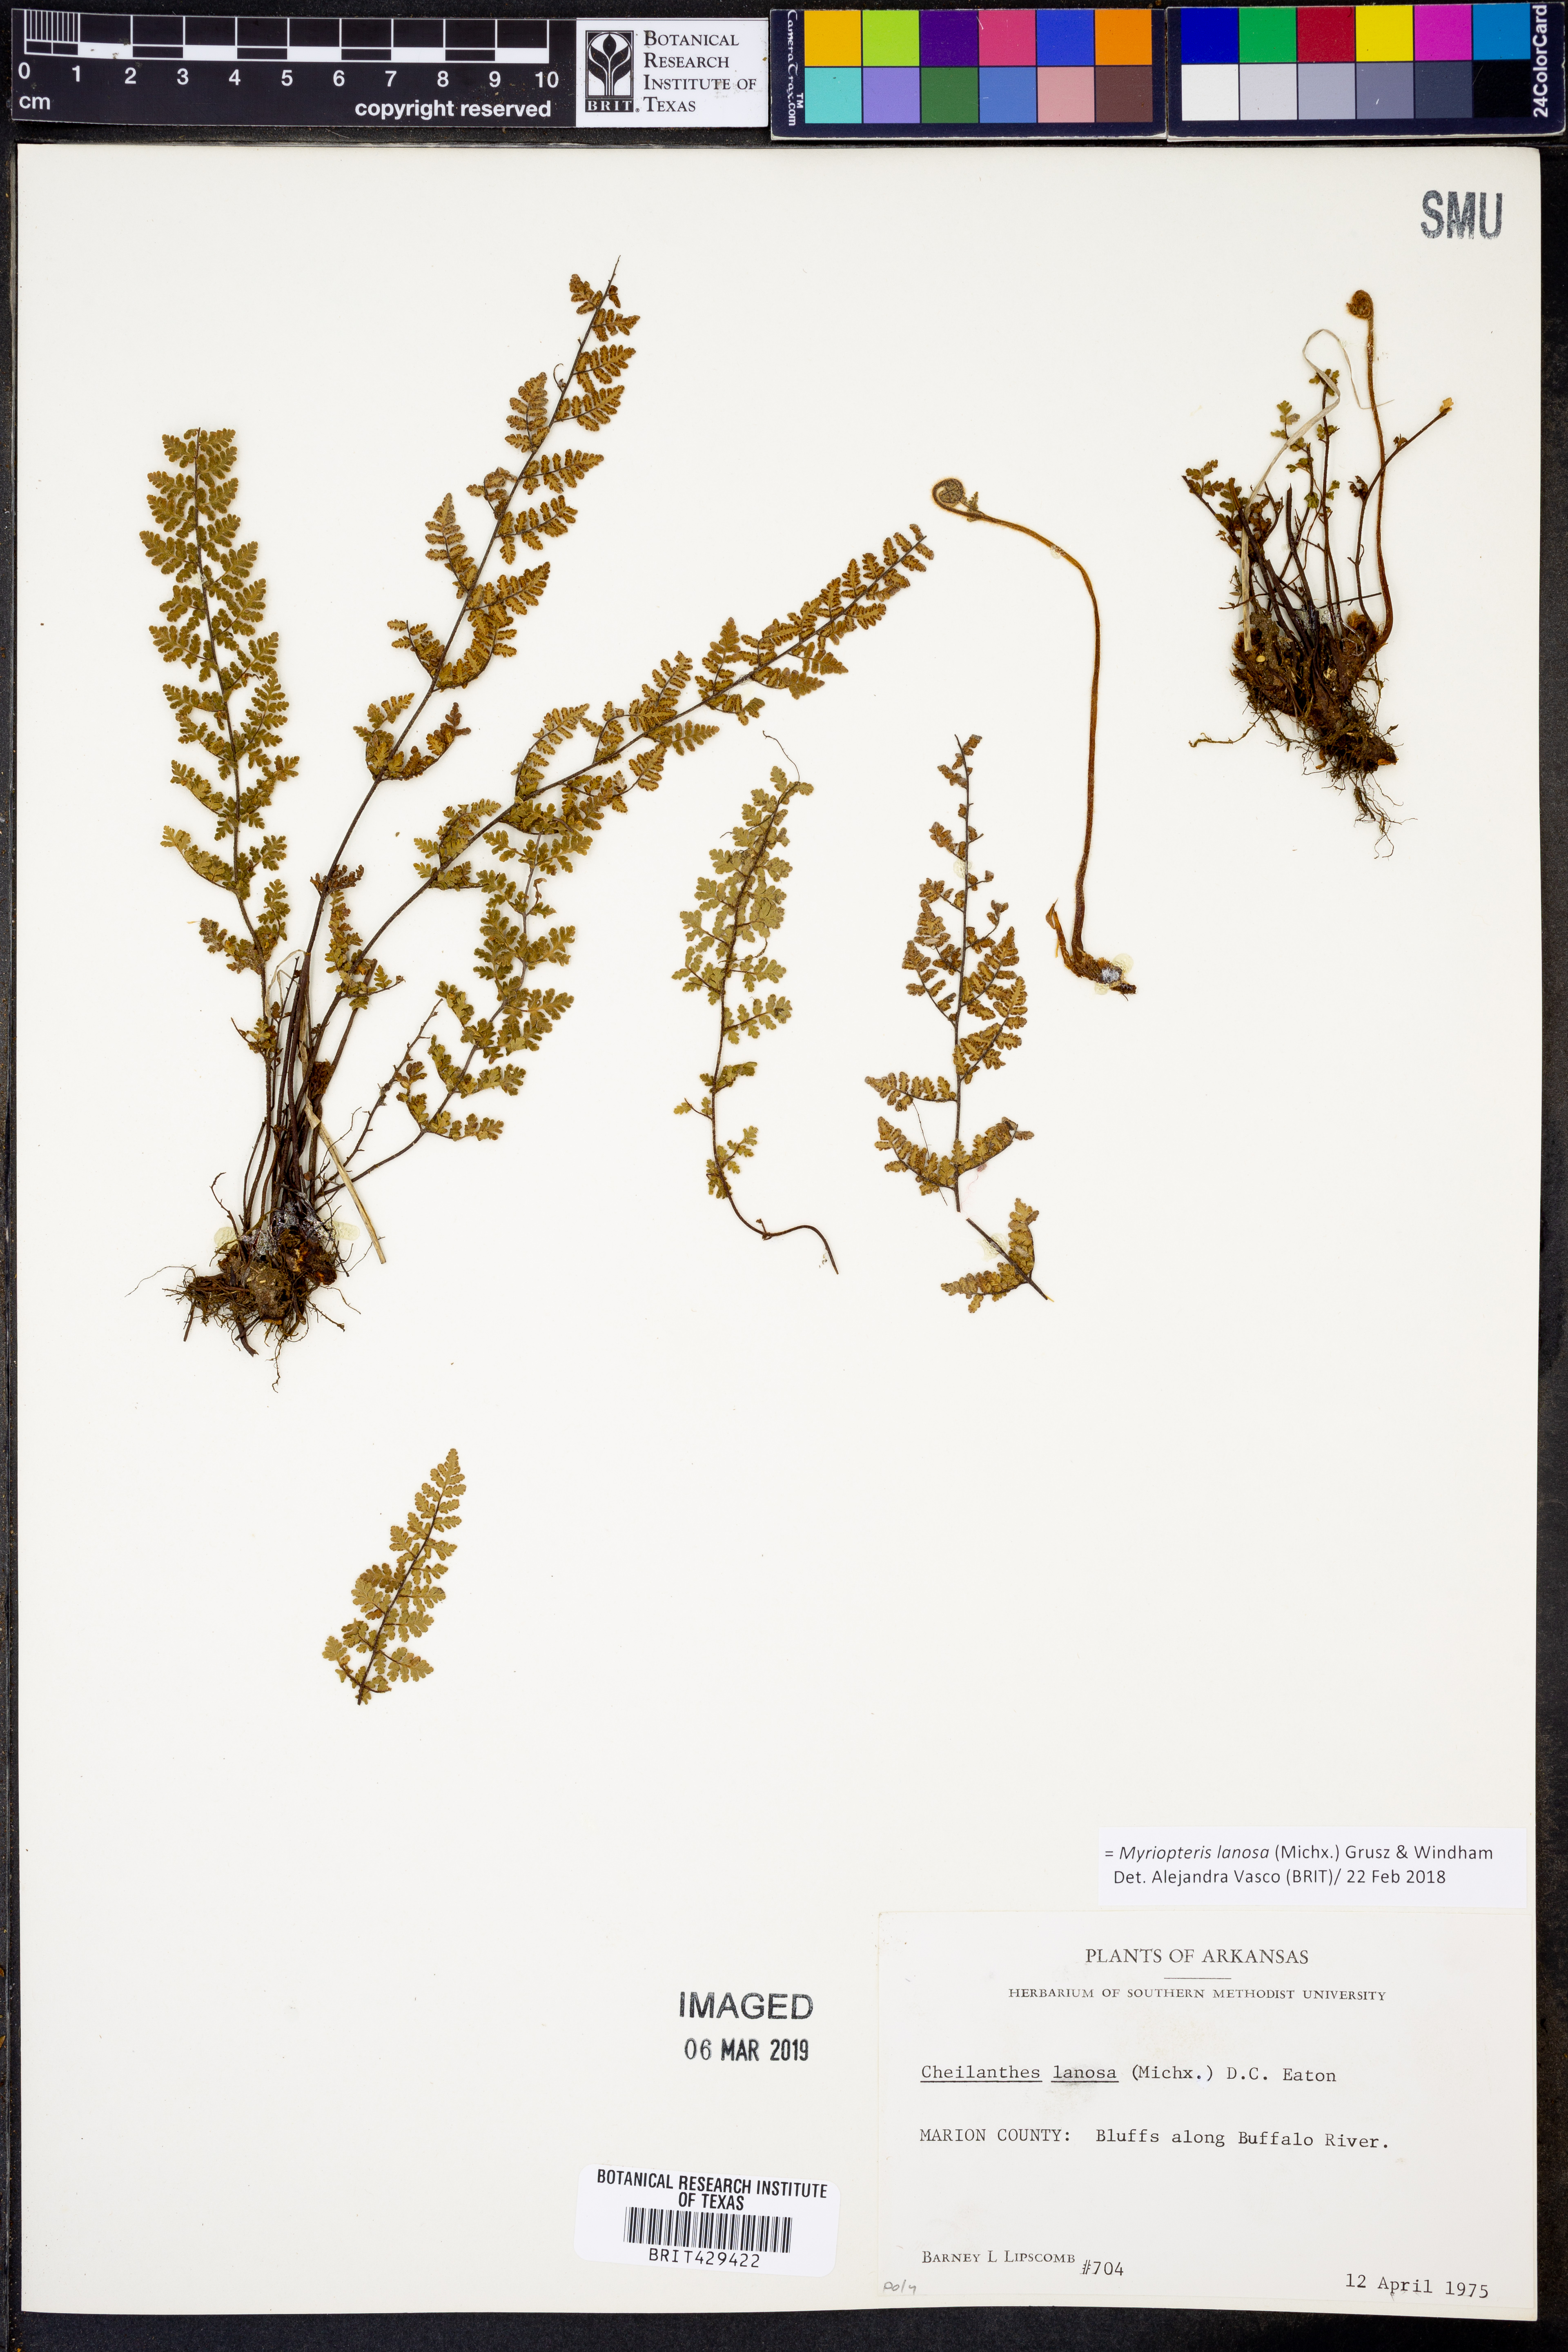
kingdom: Plantae
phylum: Tracheophyta
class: Polypodiopsida
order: Polypodiales
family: Pteridaceae
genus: Myriopteris
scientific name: Myriopteris lanosa
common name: Hairy lip fern
